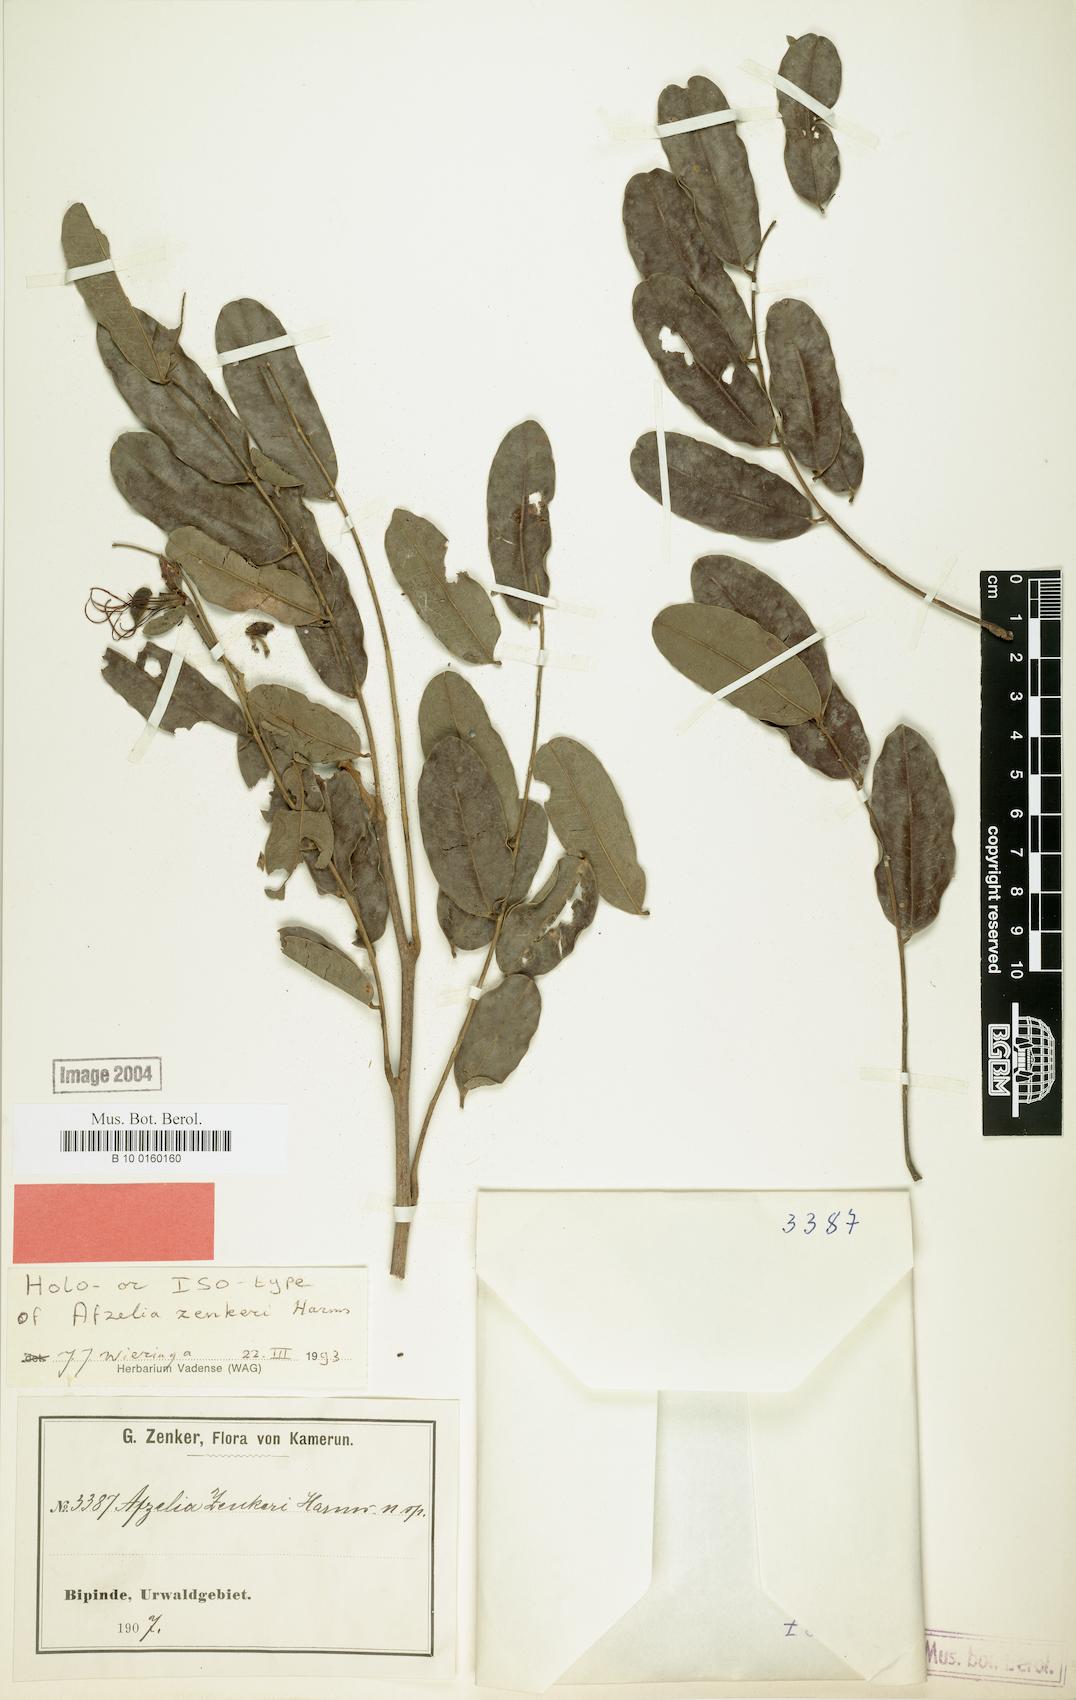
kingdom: Plantae
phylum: Tracheophyta
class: Magnoliopsida
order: Fabales
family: Fabaceae
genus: Afzelia
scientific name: Afzelia pachyloba
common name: White afzelia
